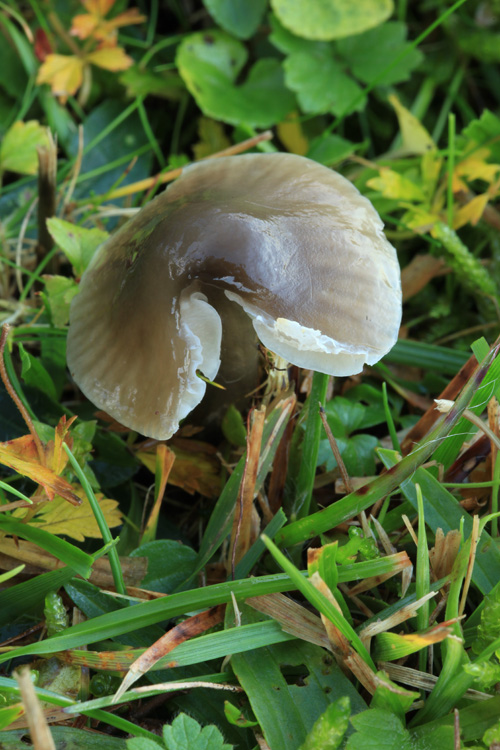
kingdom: Fungi
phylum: Basidiomycota
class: Agaricomycetes
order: Agaricales
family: Hygrophoraceae
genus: Gliophorus
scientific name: Gliophorus irrigatus
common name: slimet vokshat
